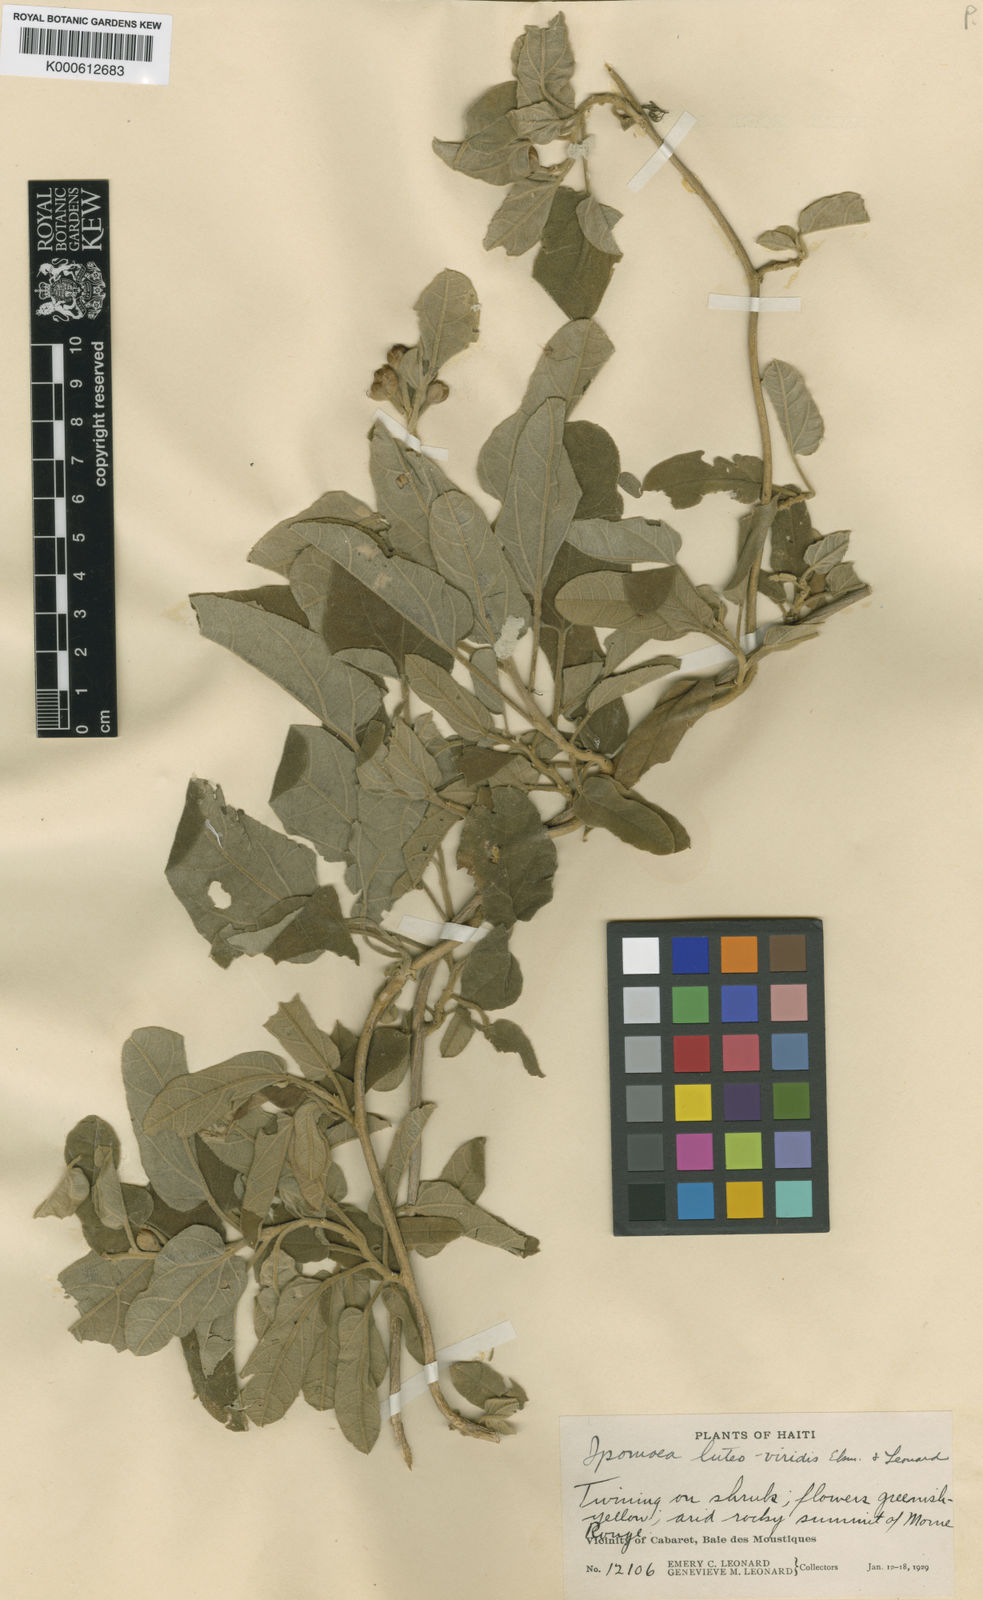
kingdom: Plantae
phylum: Tracheophyta
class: Magnoliopsida
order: Solanales
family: Convolvulaceae
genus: Ipomoea
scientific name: Ipomoea luteoviridis
